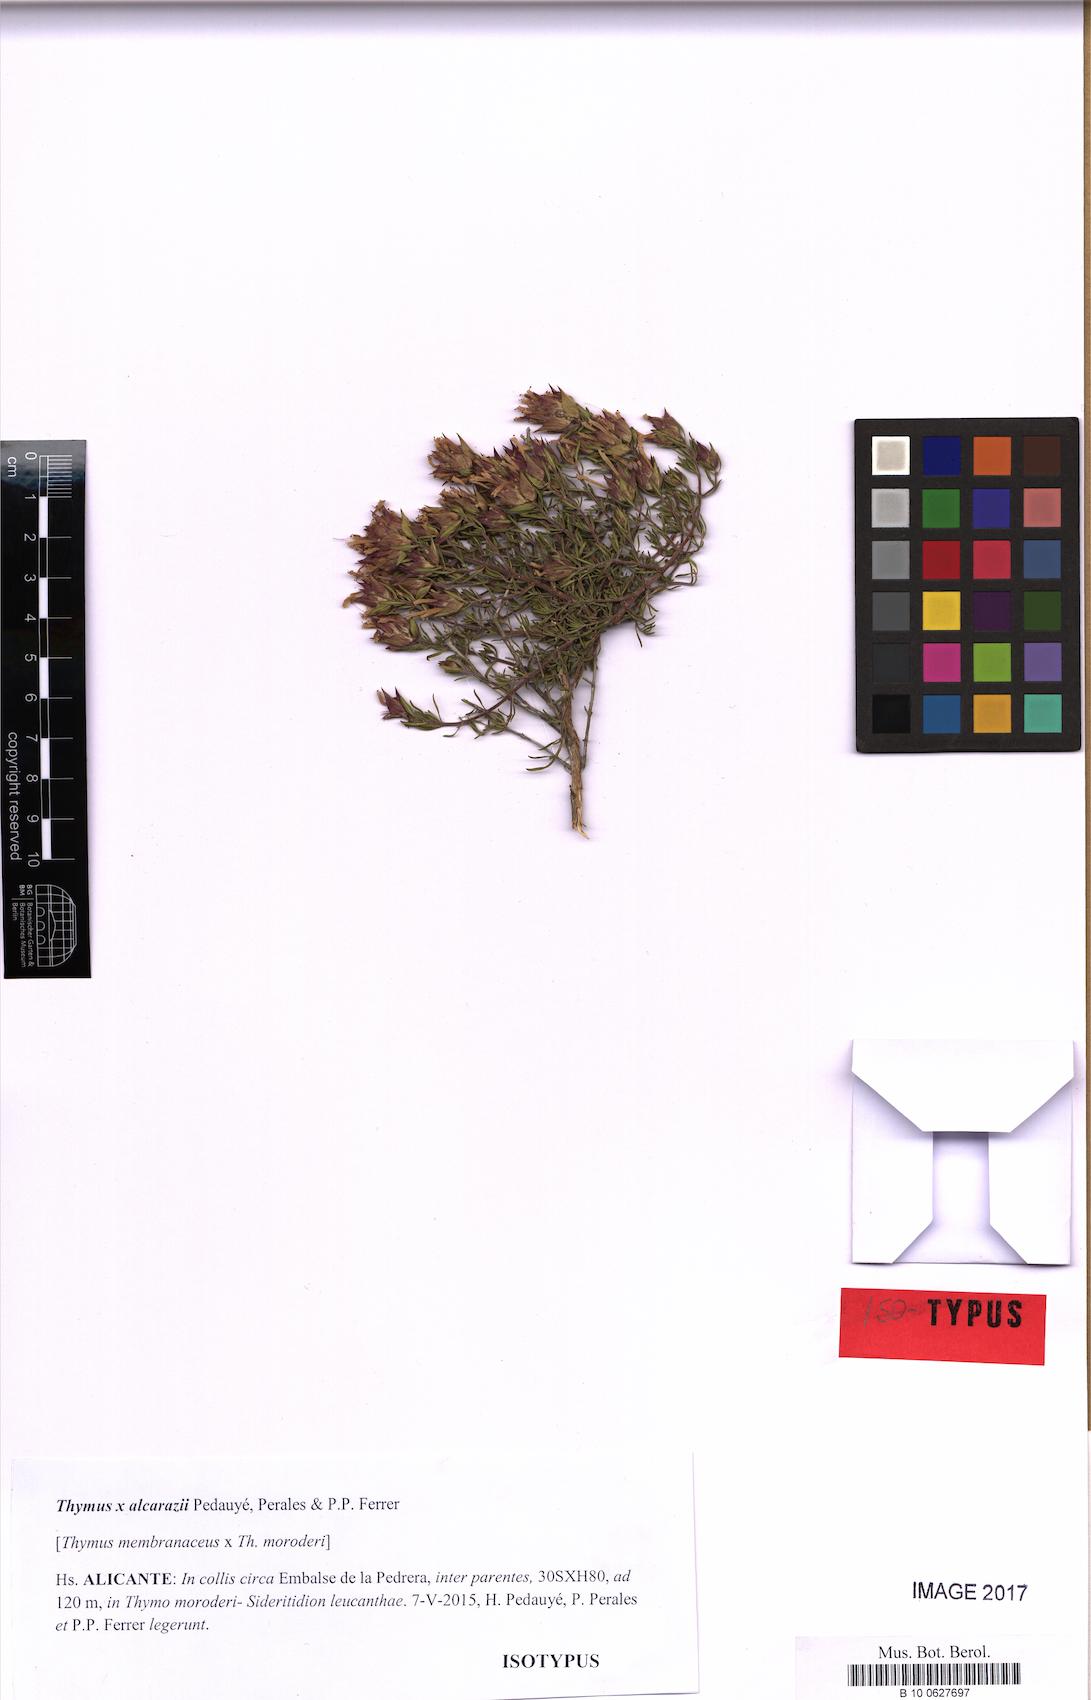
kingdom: Plantae
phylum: Tracheophyta
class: Magnoliopsida
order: Lamiales
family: Lamiaceae
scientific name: Lamiaceae
